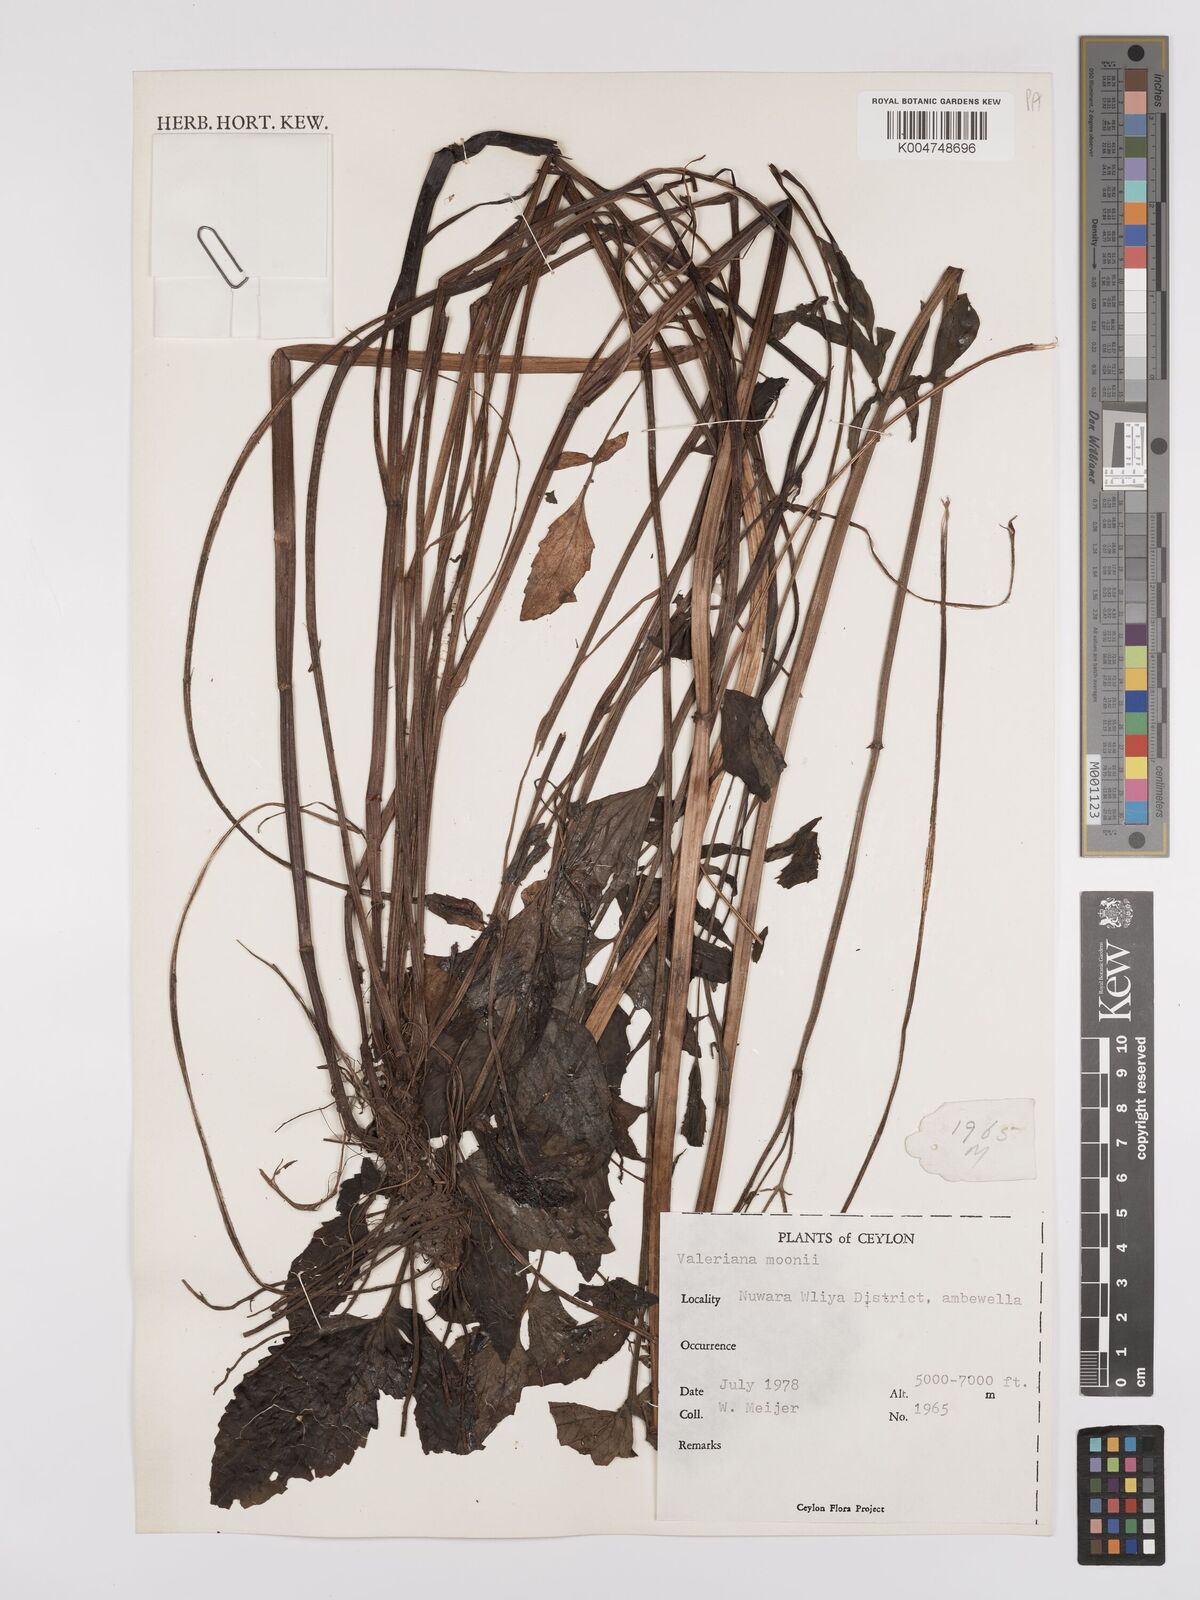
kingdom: Plantae
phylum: Tracheophyta
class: Magnoliopsida
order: Dipsacales
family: Caprifoliaceae
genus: Valeriana
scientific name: Valeriana moonii
